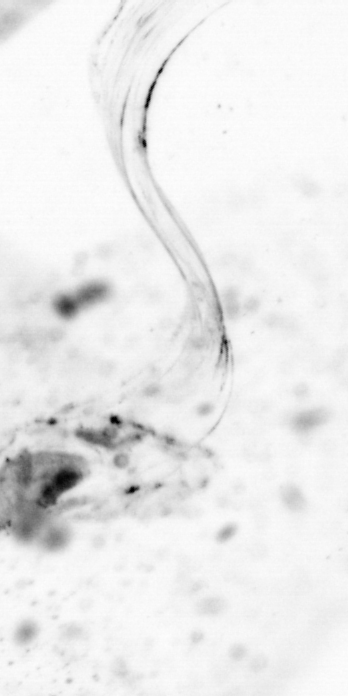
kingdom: Animalia
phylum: Chordata
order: Copelata
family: Fritillariidae
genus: Appendicularia
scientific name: Appendicularia
